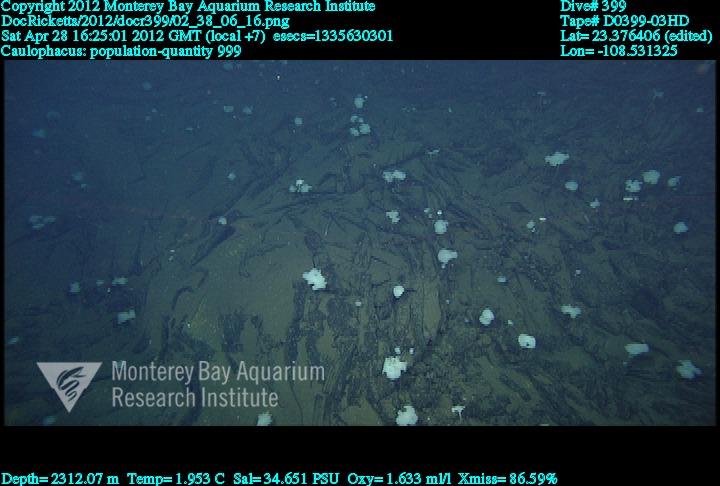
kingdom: Animalia
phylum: Porifera
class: Hexactinellida
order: Lyssacinosida
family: Rossellidae
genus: Caulophacus
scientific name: Caulophacus
